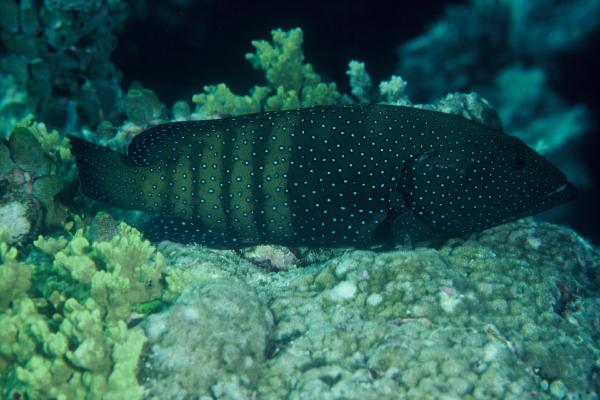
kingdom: Animalia
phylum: Chordata
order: Perciformes
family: Serranidae
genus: Cephalopholis
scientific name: Cephalopholis argus
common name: Peacock grouper
